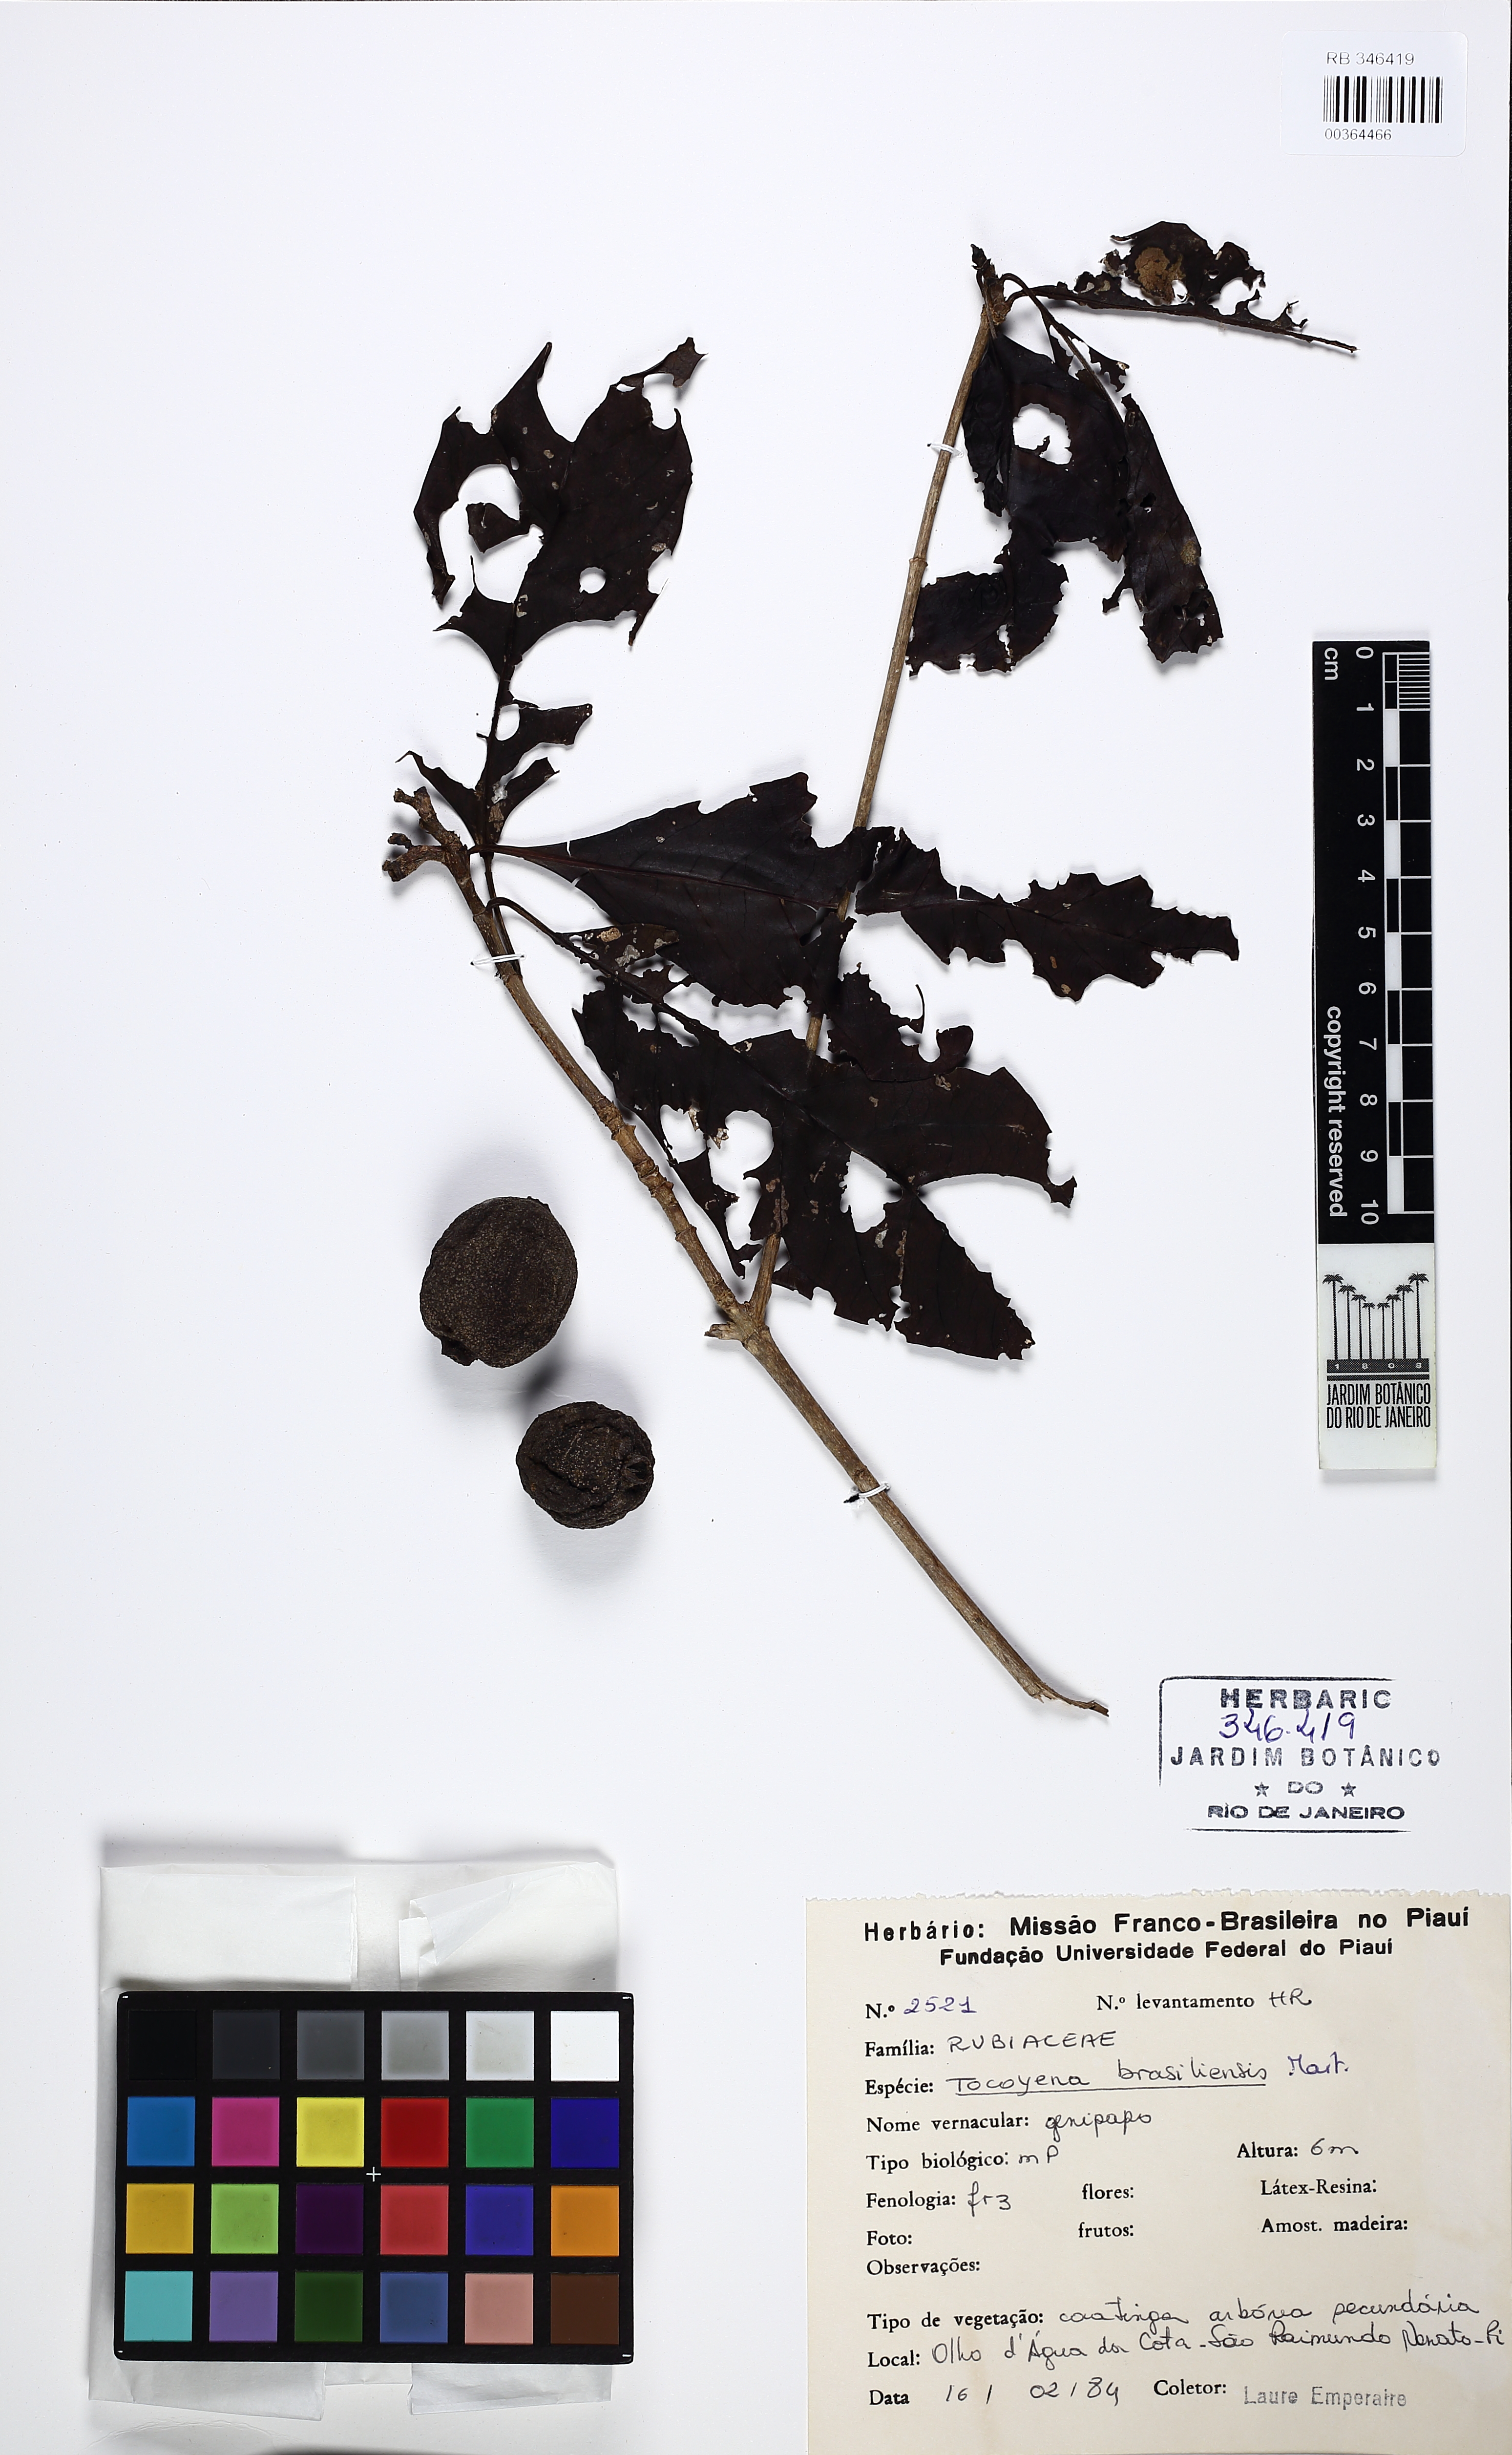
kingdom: Plantae
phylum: Tracheophyta
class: Magnoliopsida
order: Gentianales
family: Rubiaceae
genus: Tocoyena
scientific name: Tocoyena sellowiana
